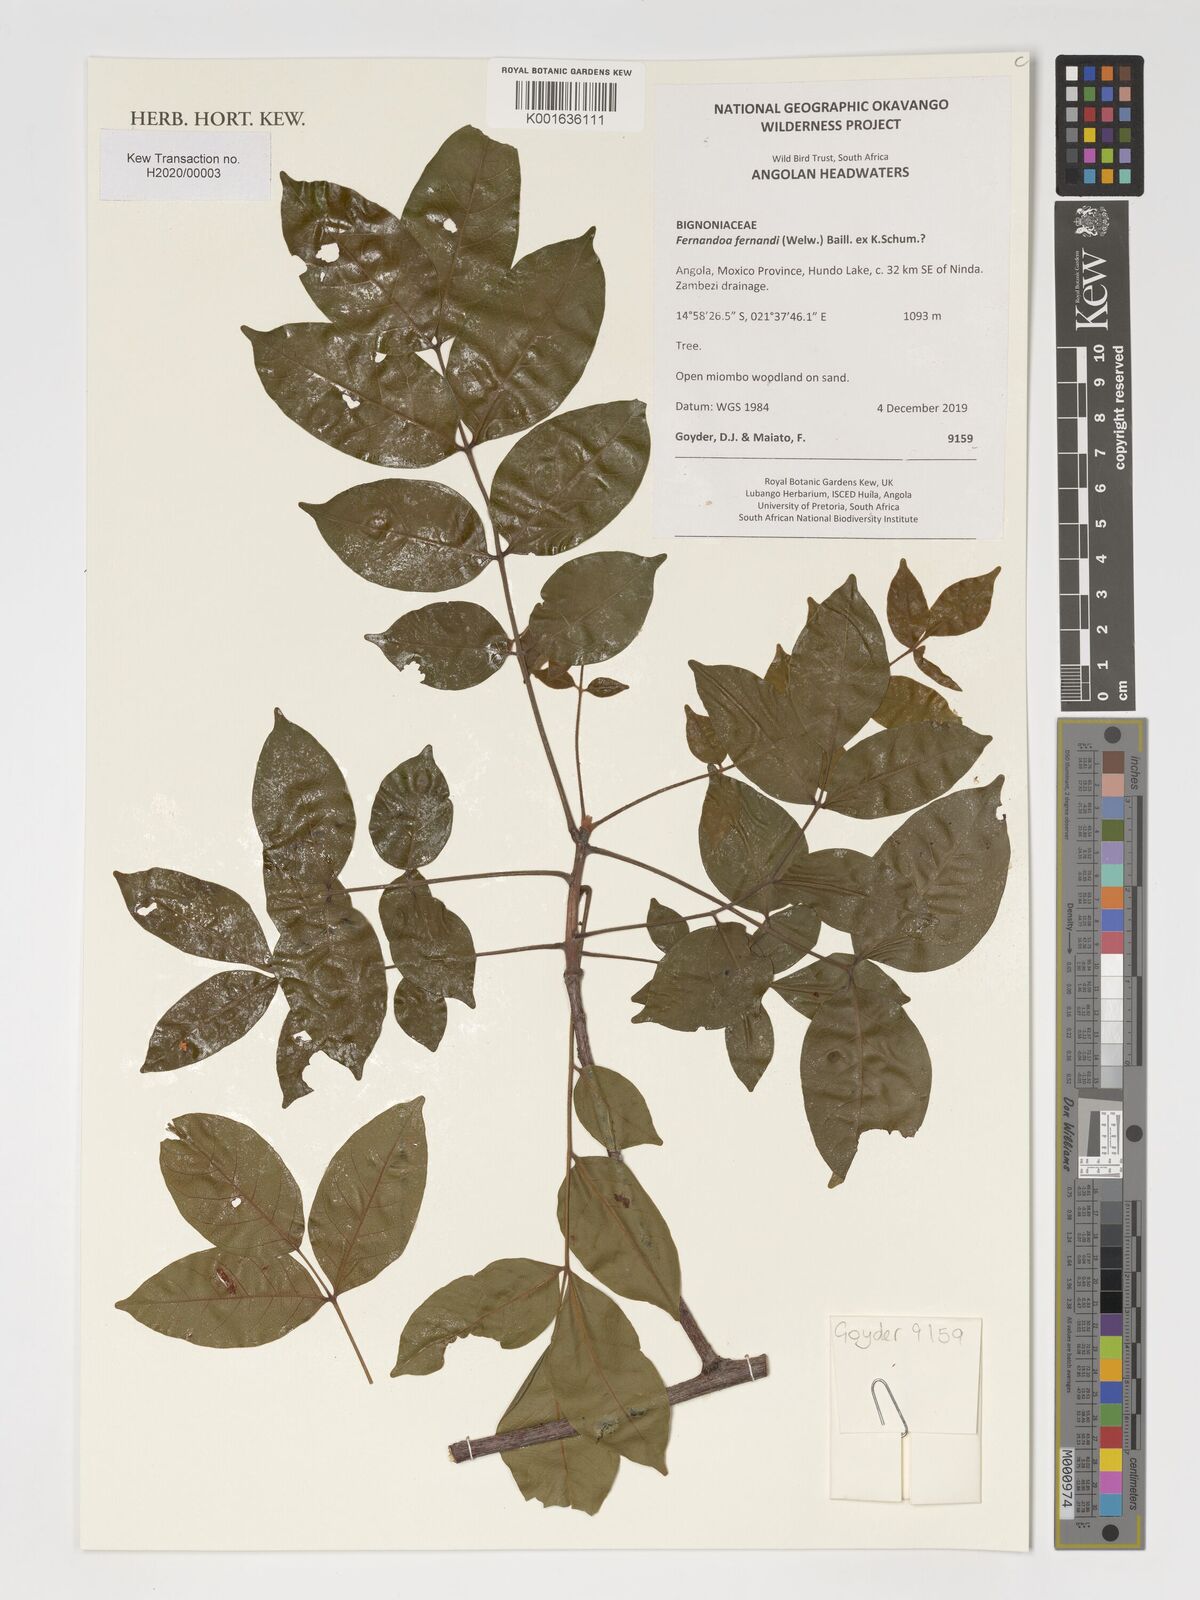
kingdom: Plantae
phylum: Tracheophyta
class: Magnoliopsida
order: Lamiales
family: Bignoniaceae
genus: Fernandoa
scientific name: Fernandoa ferdinandi
